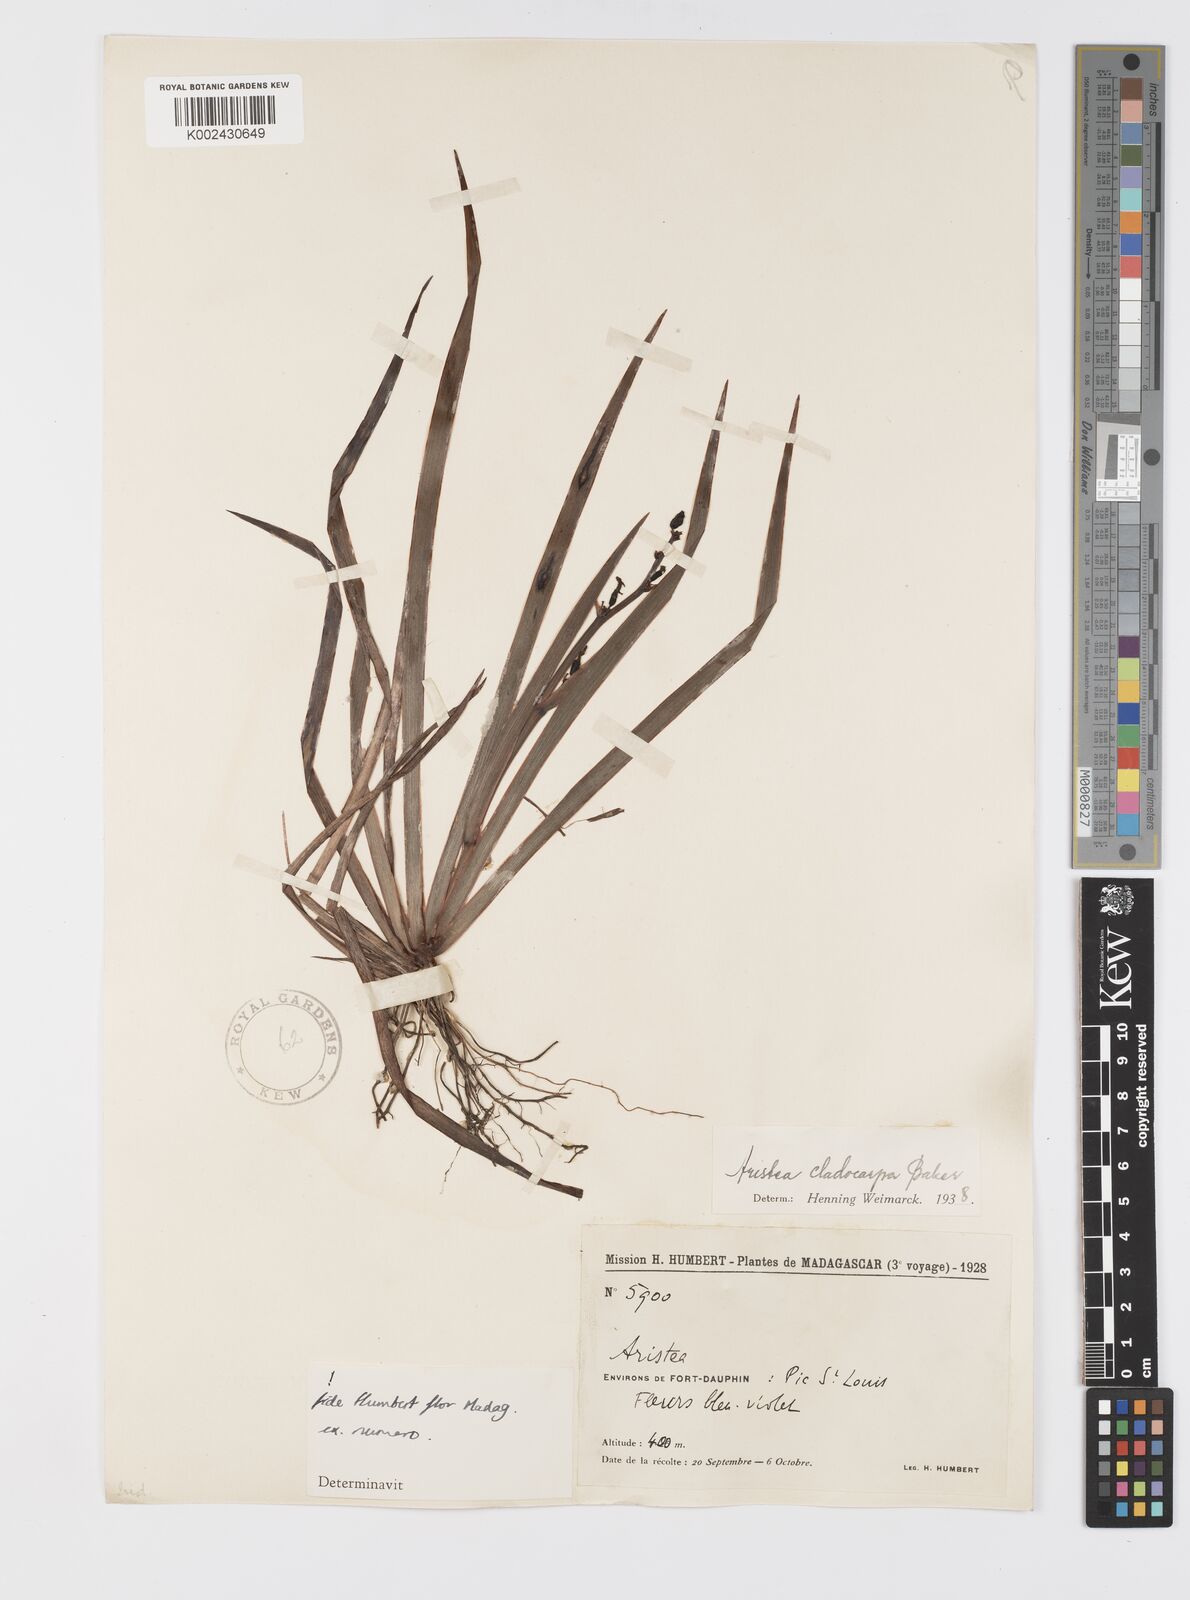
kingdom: Plantae
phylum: Tracheophyta
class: Liliopsida
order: Asparagales
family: Iridaceae
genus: Aristea
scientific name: Aristea cladocarpa
